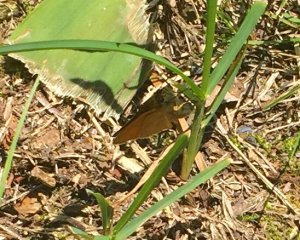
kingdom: Animalia
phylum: Arthropoda
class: Insecta
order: Lepidoptera
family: Hesperiidae
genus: Thymelicus
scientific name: Thymelicus lineola
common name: European Skipper
